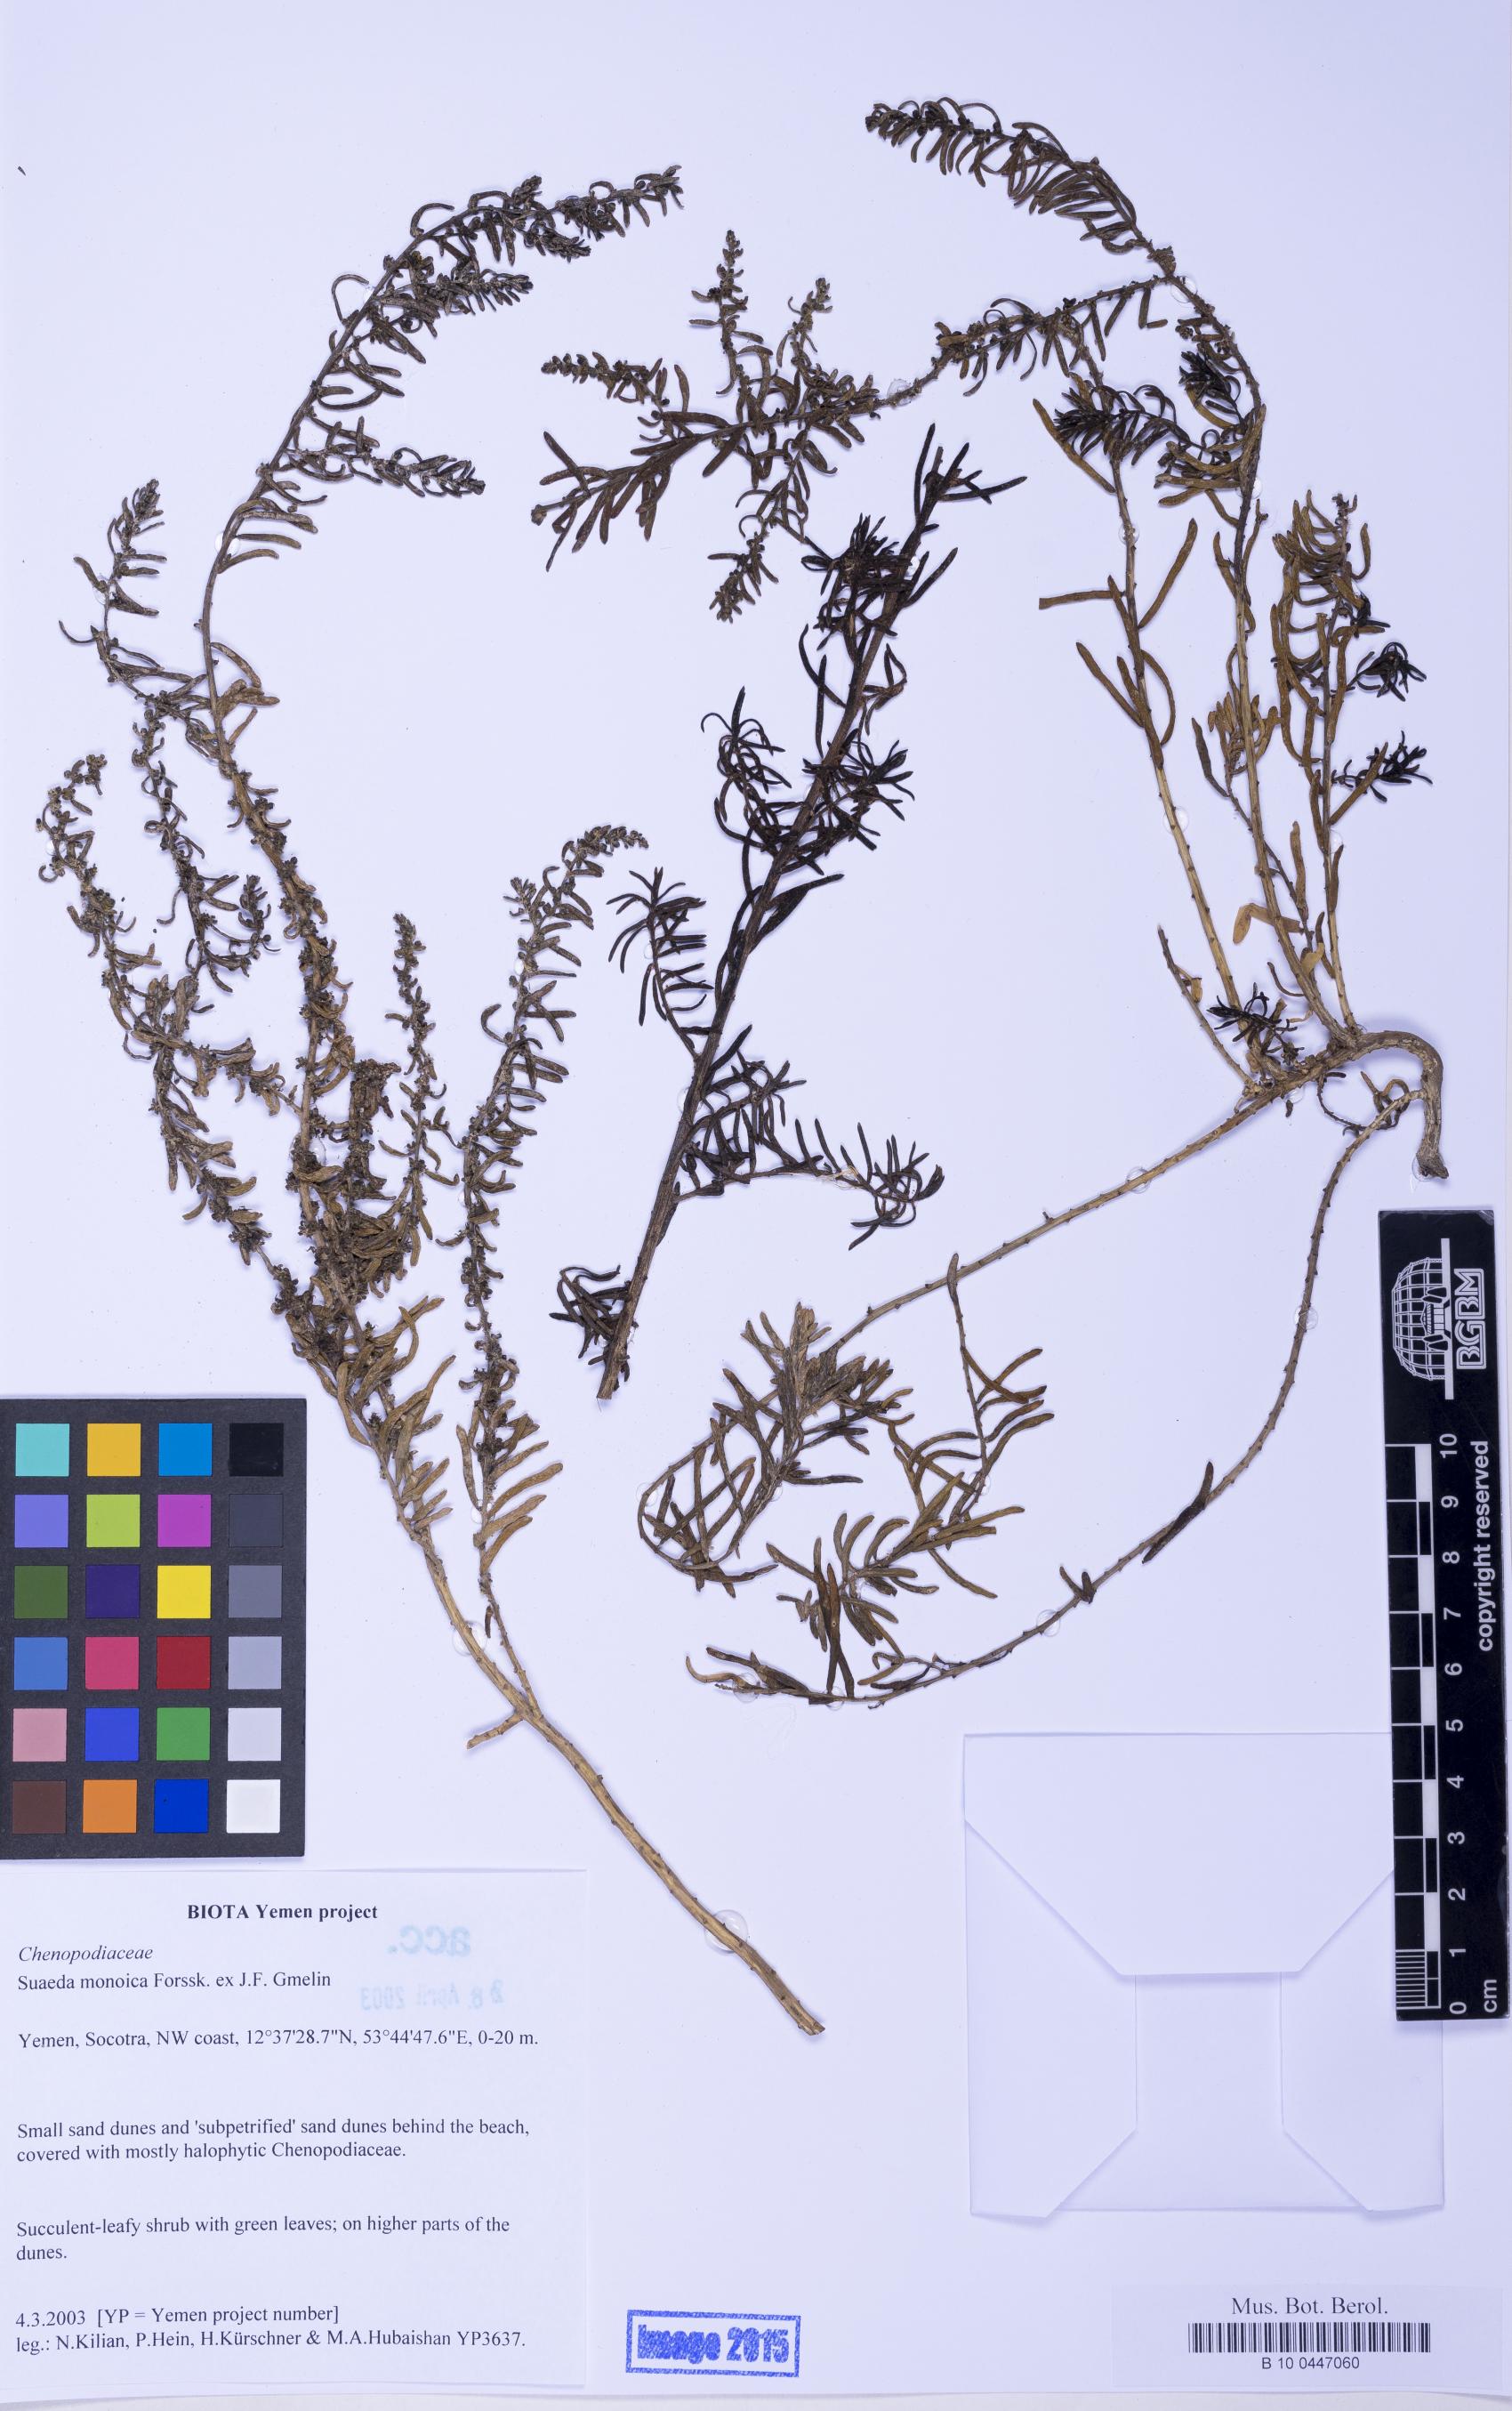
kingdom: Plantae
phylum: Tracheophyta
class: Magnoliopsida
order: Caryophyllales
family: Amaranthaceae
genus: Suaeda
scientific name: Suaeda monoica
